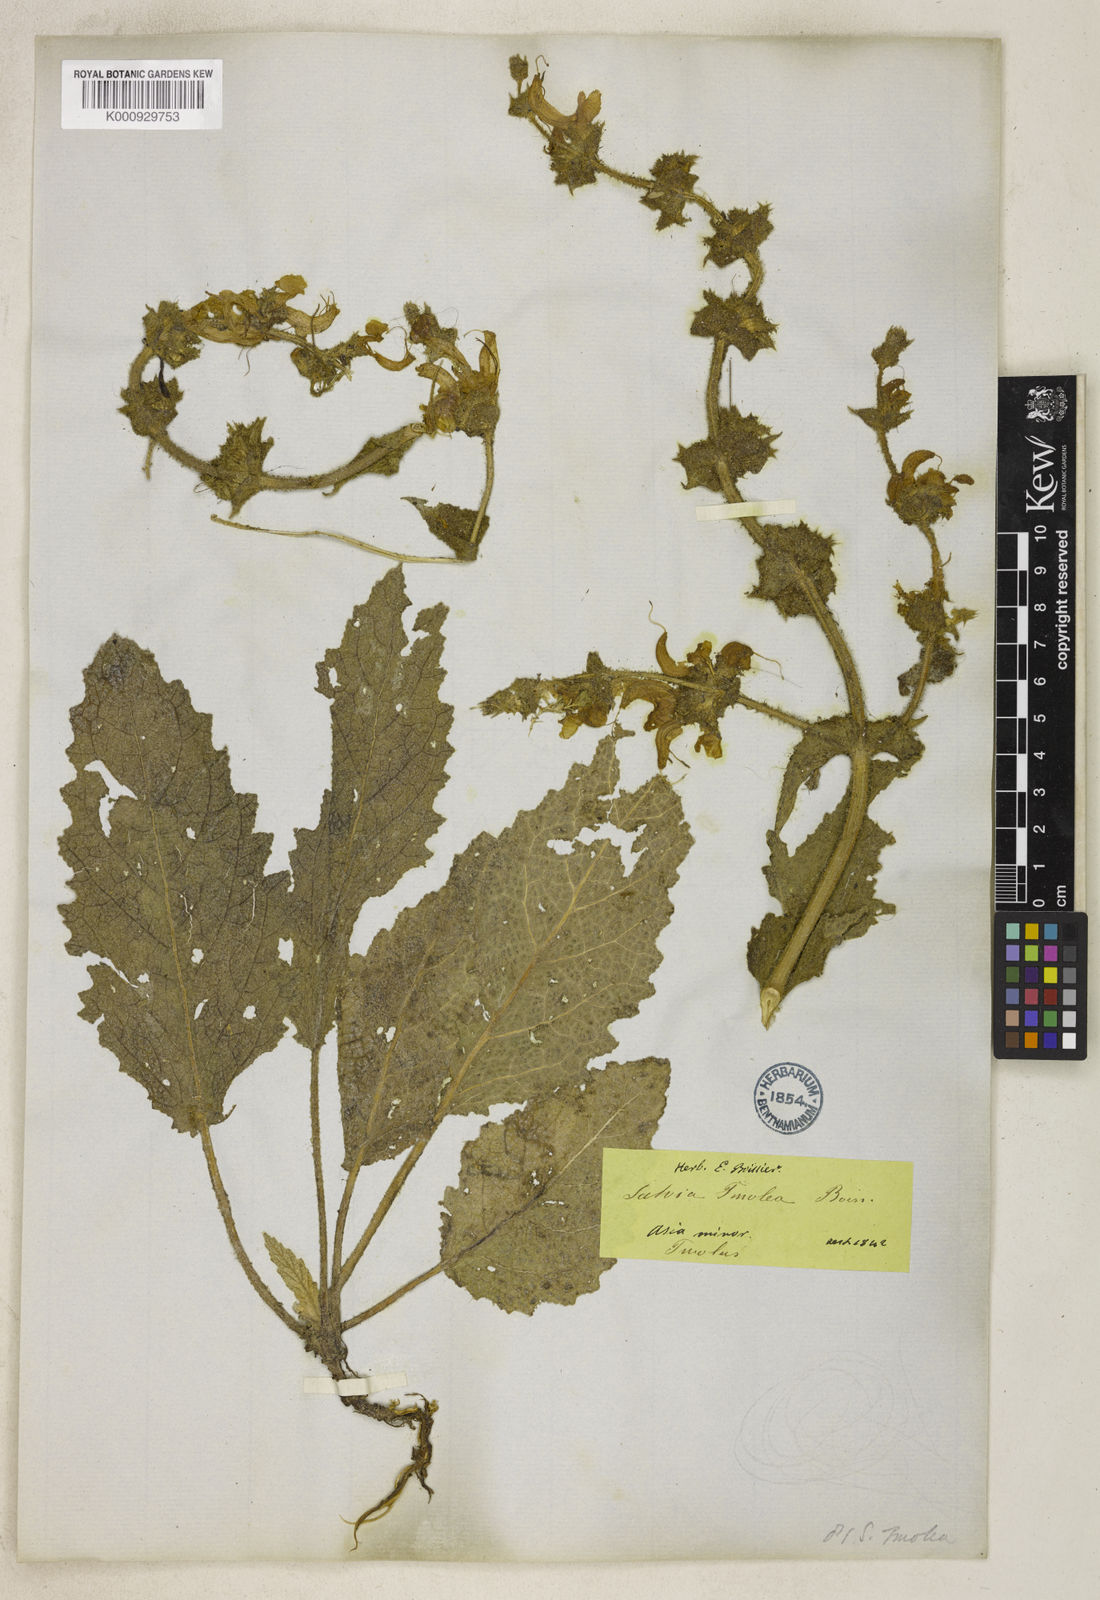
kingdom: Plantae
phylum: Tracheophyta
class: Magnoliopsida
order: Lamiales
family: Lamiaceae
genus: Salvia
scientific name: Salvia argentea
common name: Silver sage
